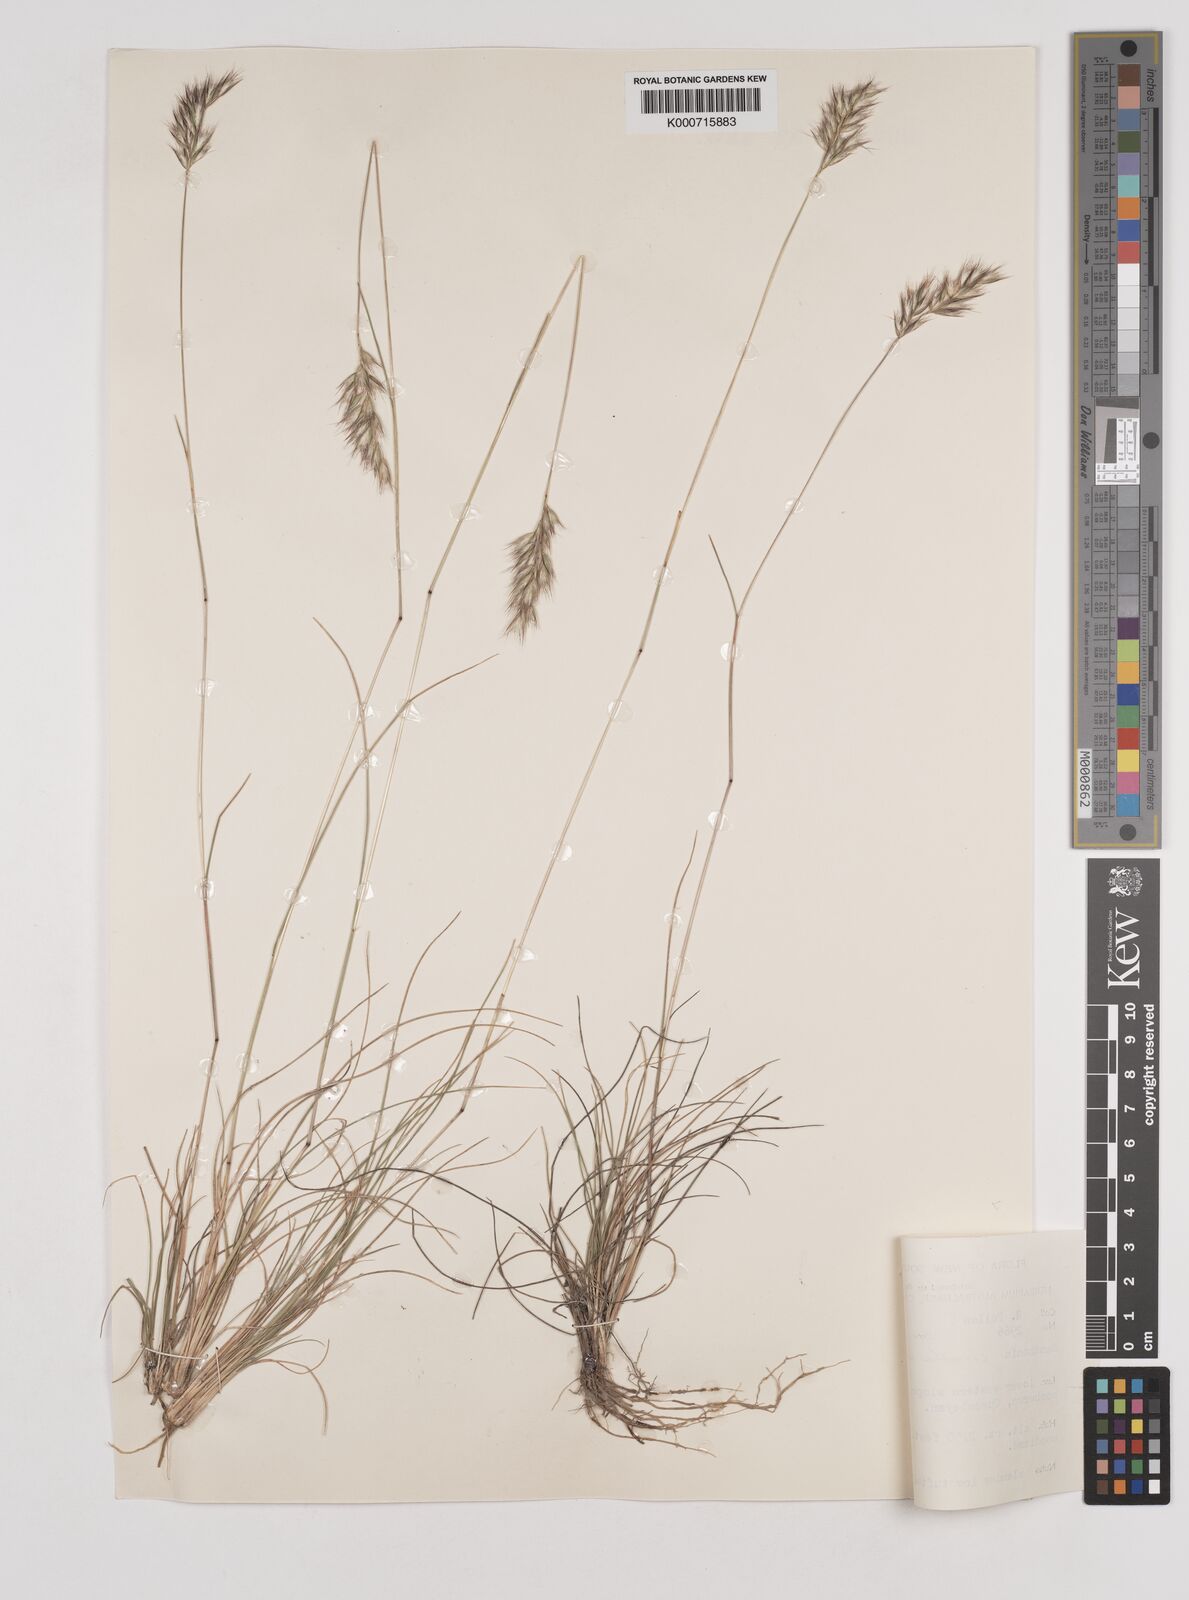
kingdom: Plantae
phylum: Tracheophyta
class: Liliopsida
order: Poales
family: Poaceae
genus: Rytidosperma
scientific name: Rytidosperma erianthum
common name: Hill wallaby grass
